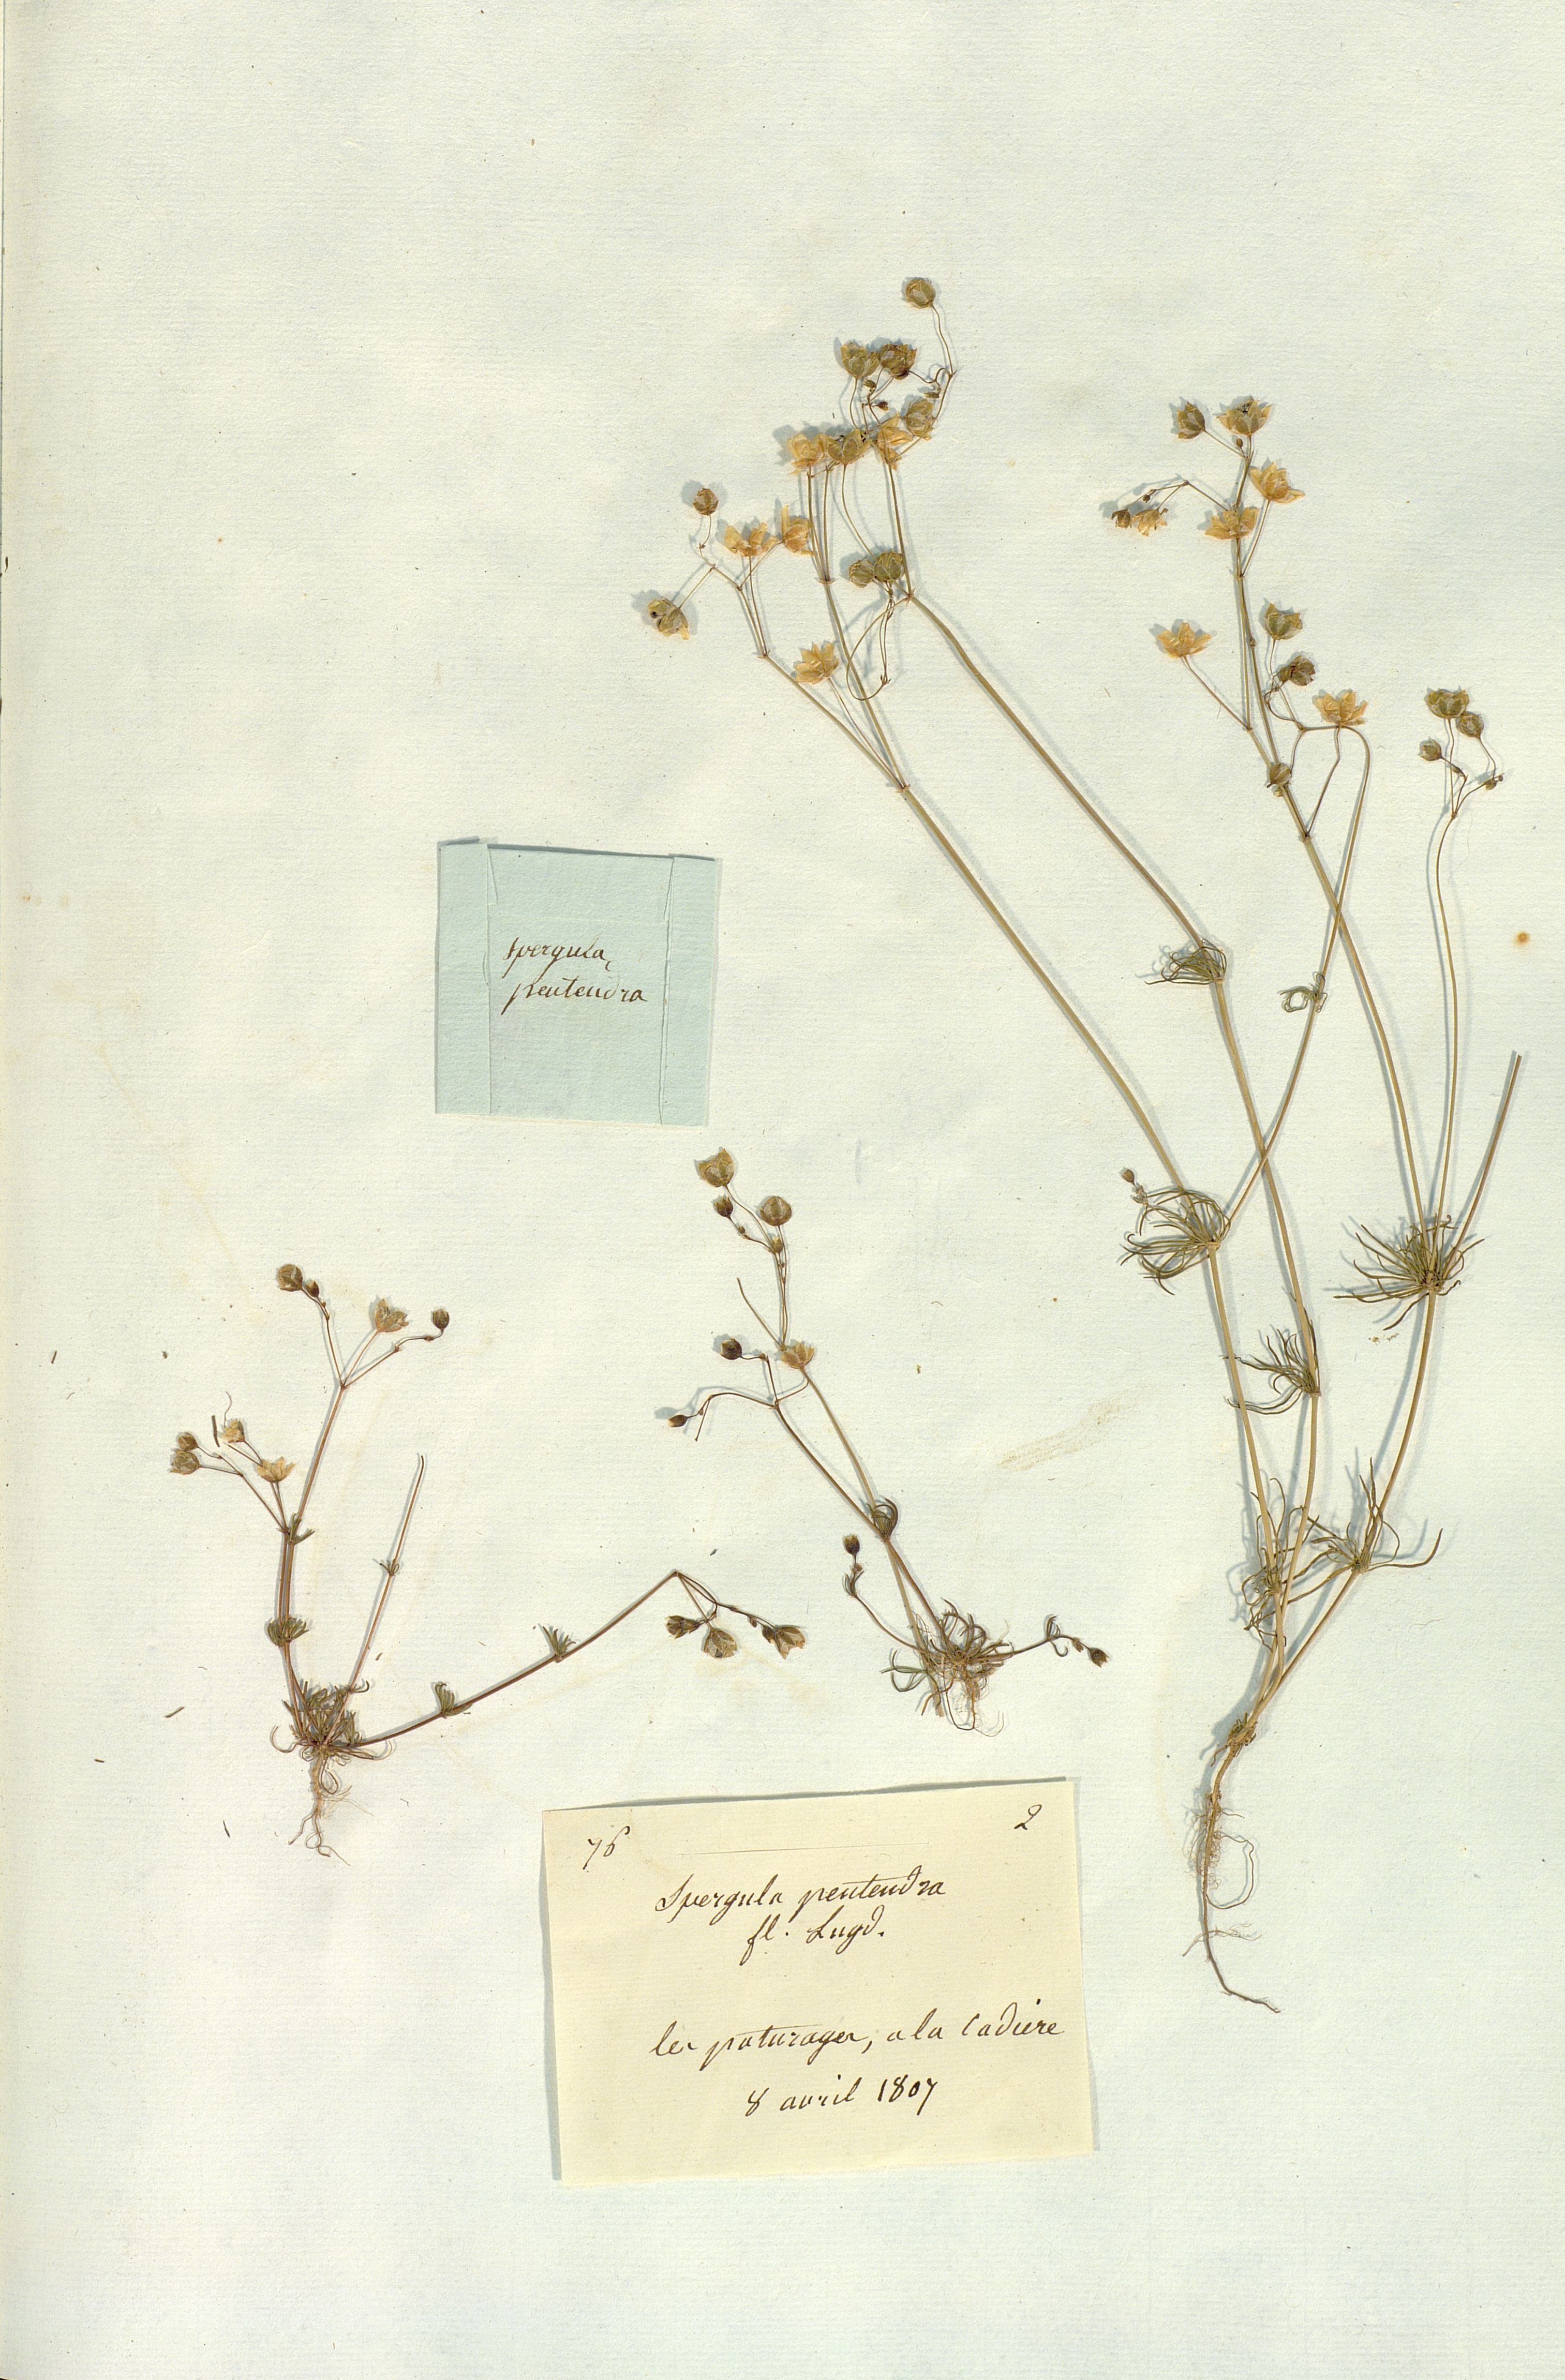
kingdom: Plantae
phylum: Tracheophyta
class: Magnoliopsida
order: Caryophyllales
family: Caryophyllaceae
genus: Spergula
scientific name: Spergula pentandra
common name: Wingstem spurry
